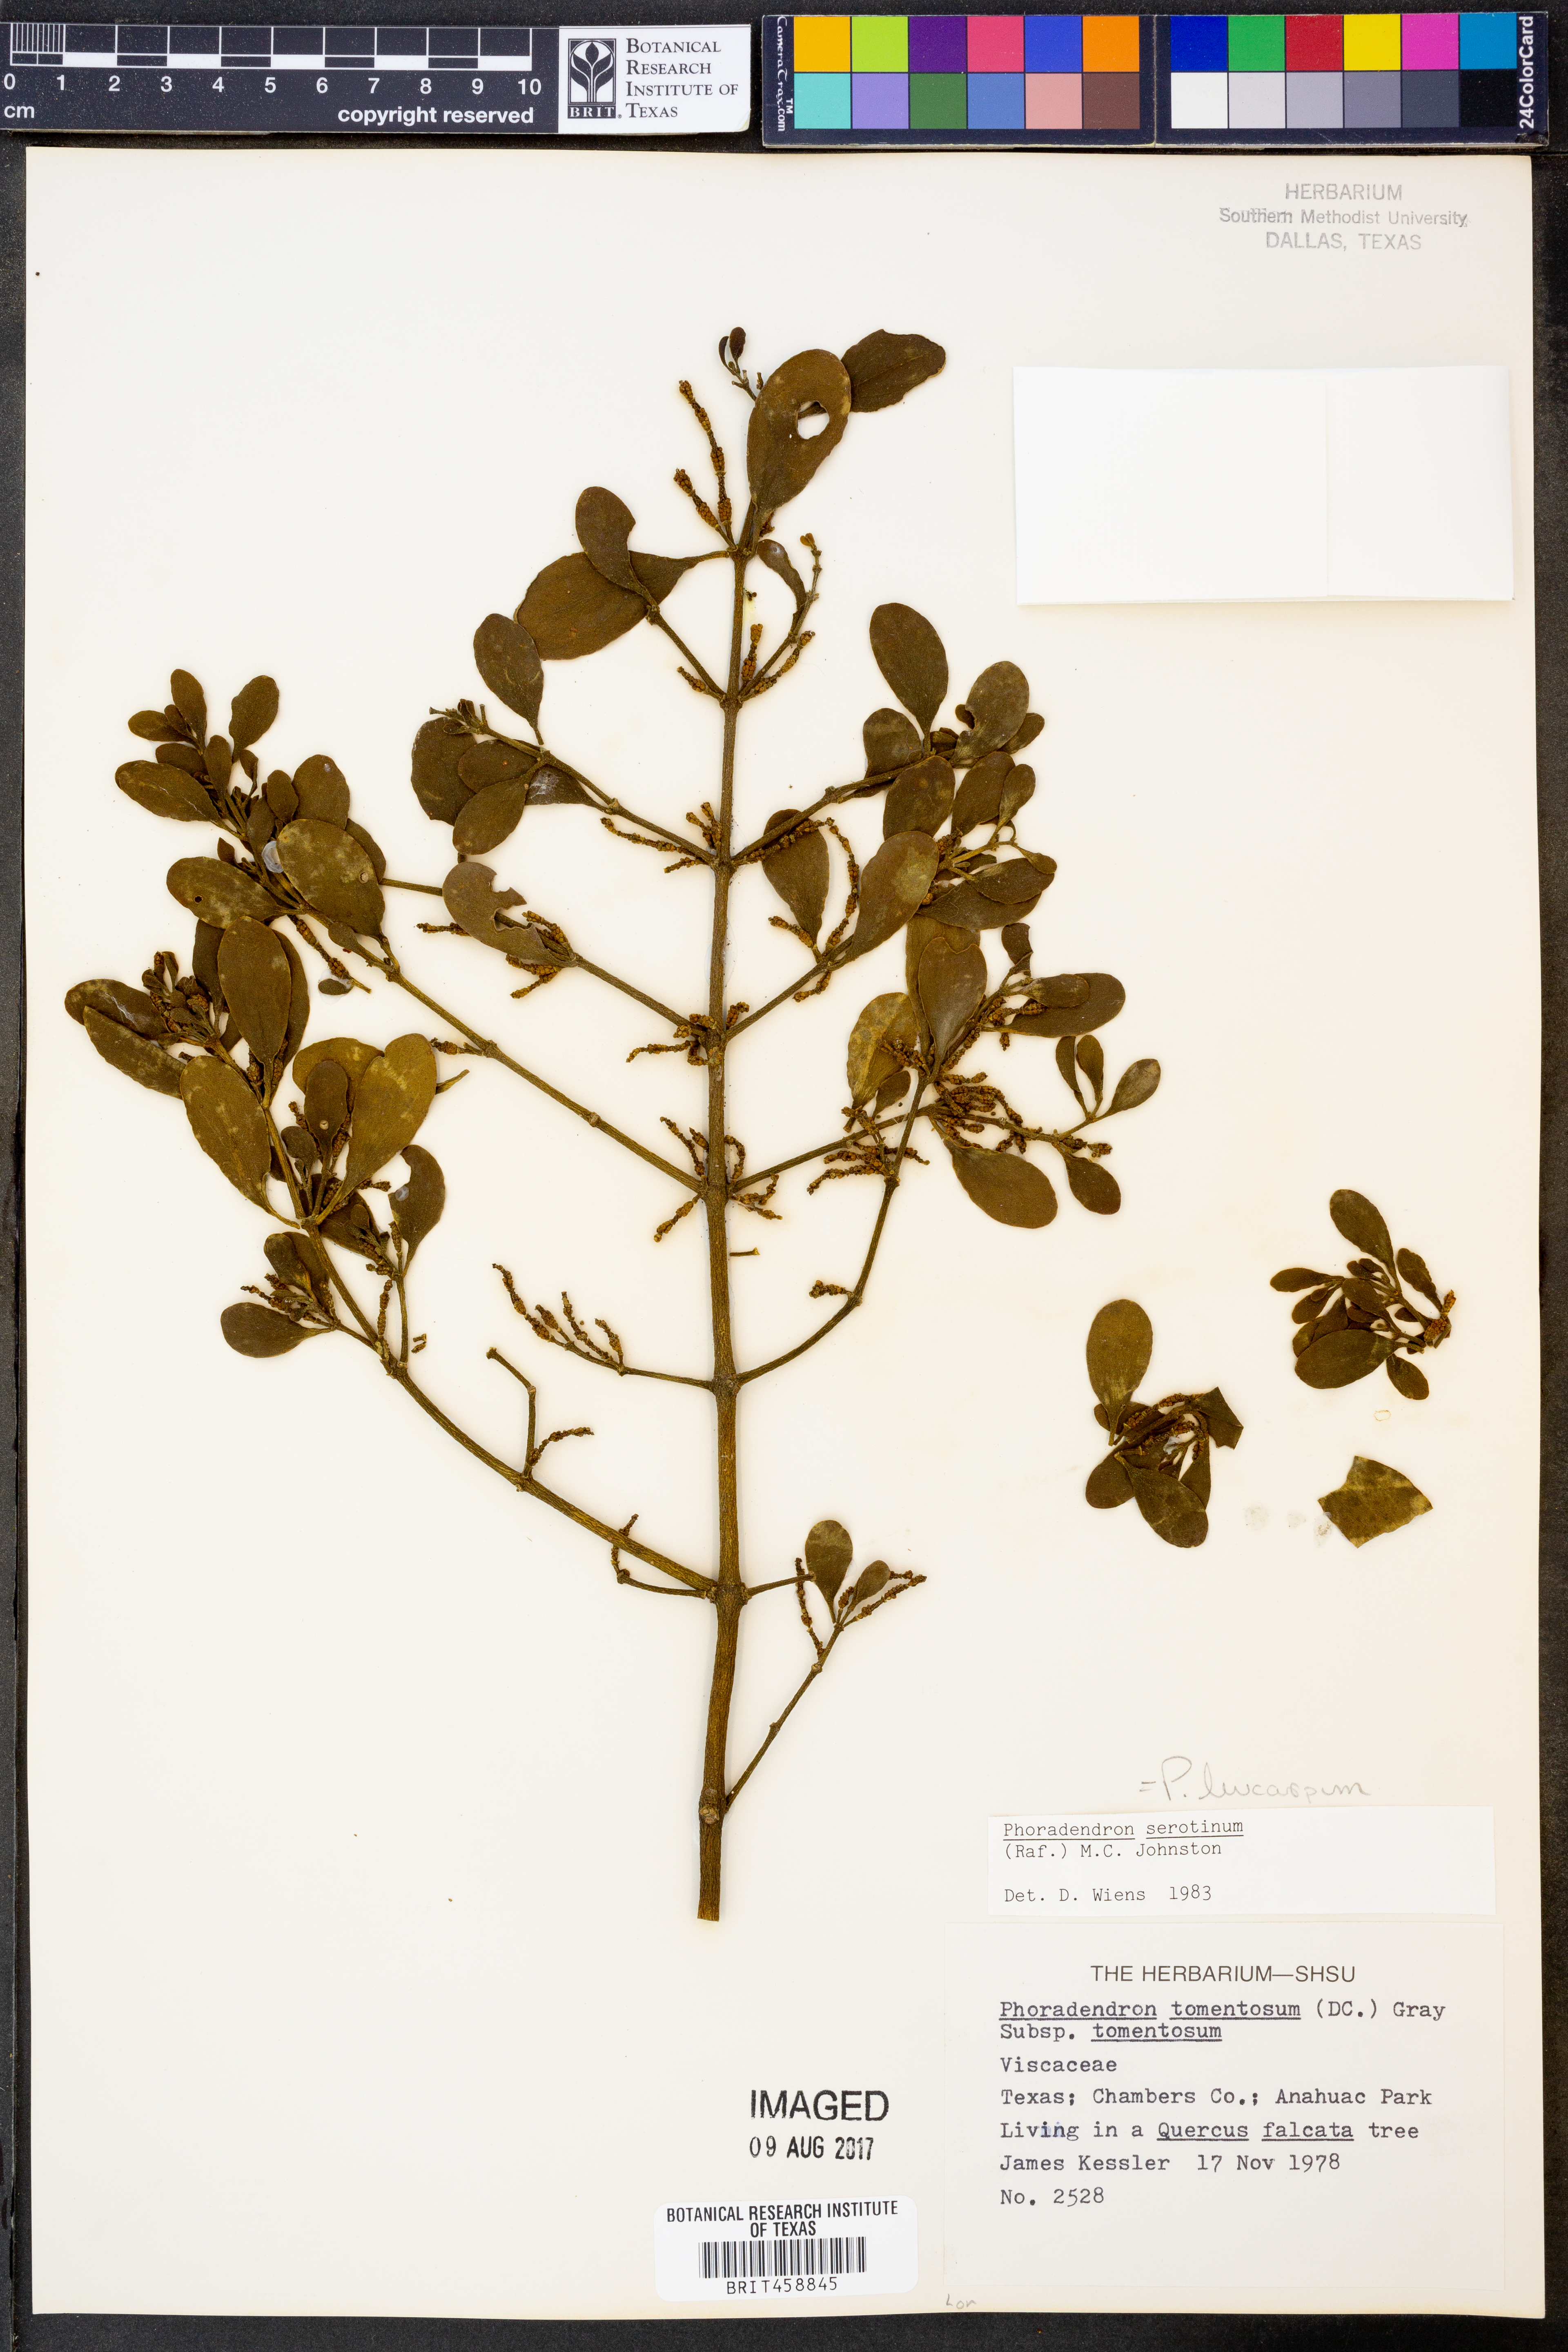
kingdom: Plantae
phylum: Tracheophyta
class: Magnoliopsida
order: Santalales
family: Viscaceae
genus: Phoradendron
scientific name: Phoradendron leucarpum
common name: Pacific mistletoe
